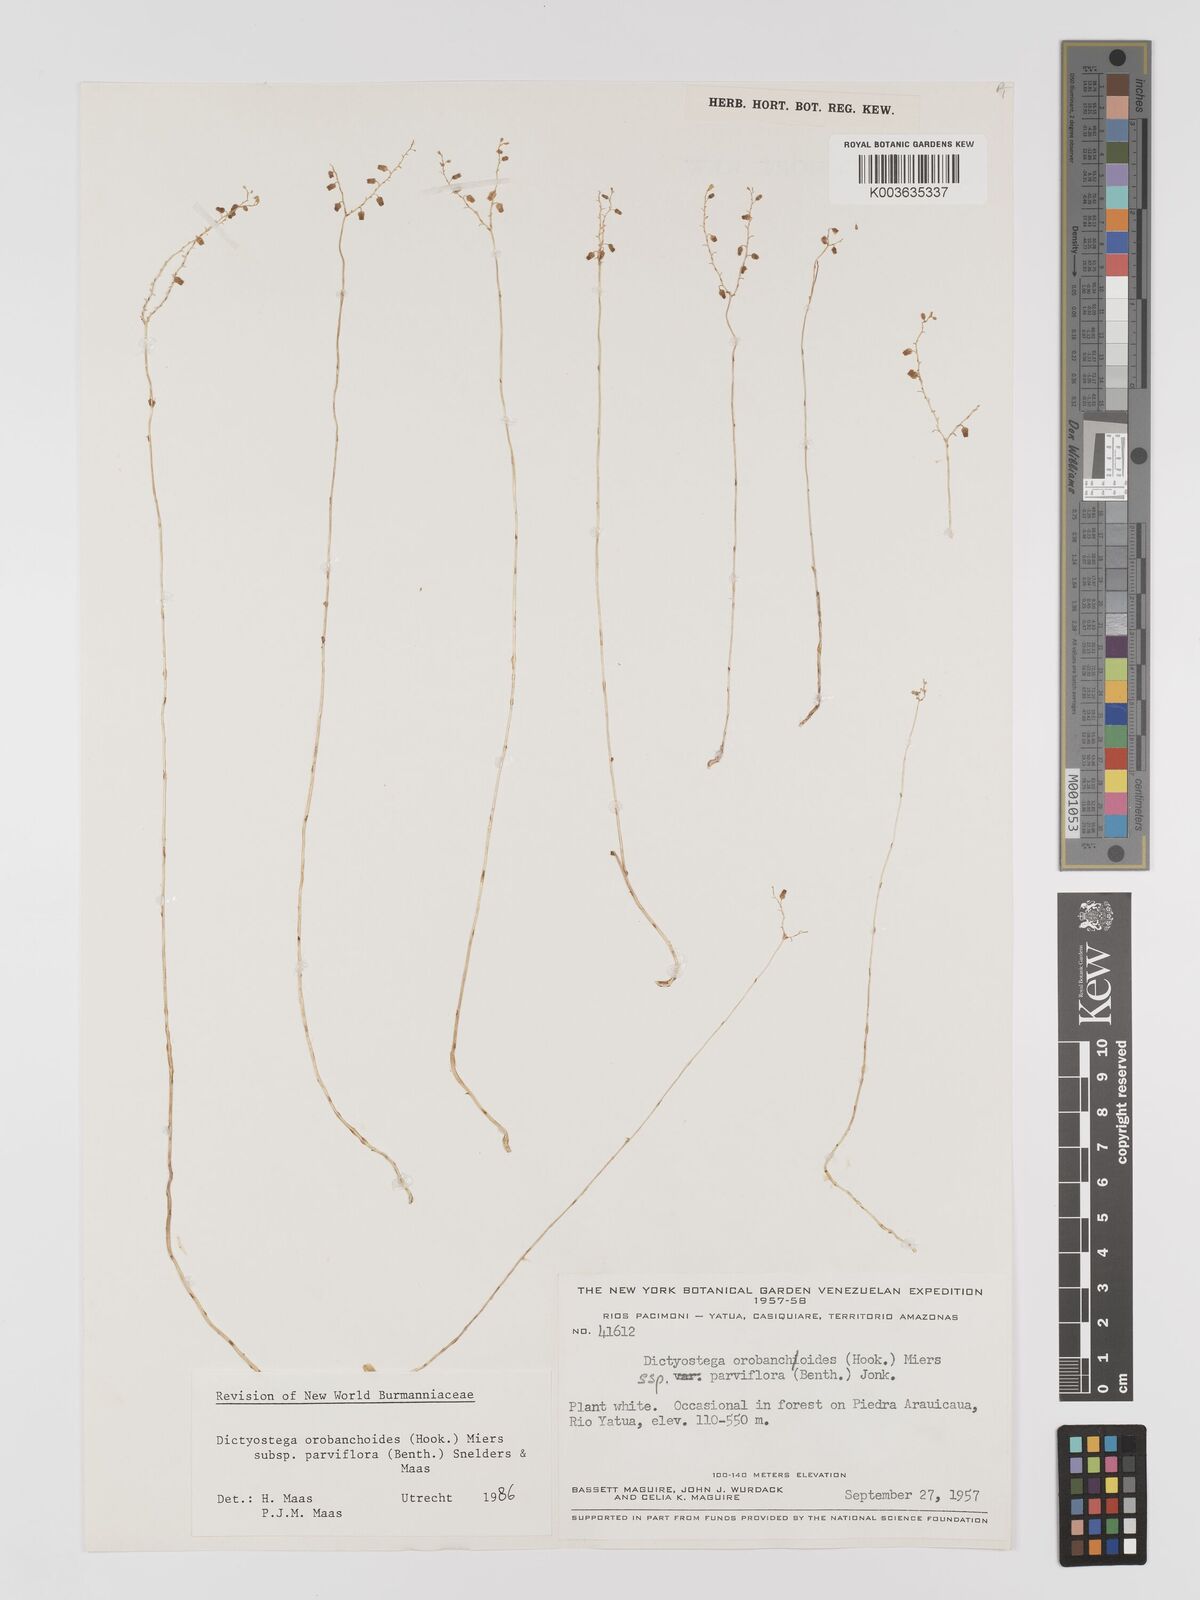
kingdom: Plantae
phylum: Tracheophyta
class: Liliopsida
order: Dioscoreales
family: Burmanniaceae
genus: Dictyostega
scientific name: Dictyostega orobanchoides
